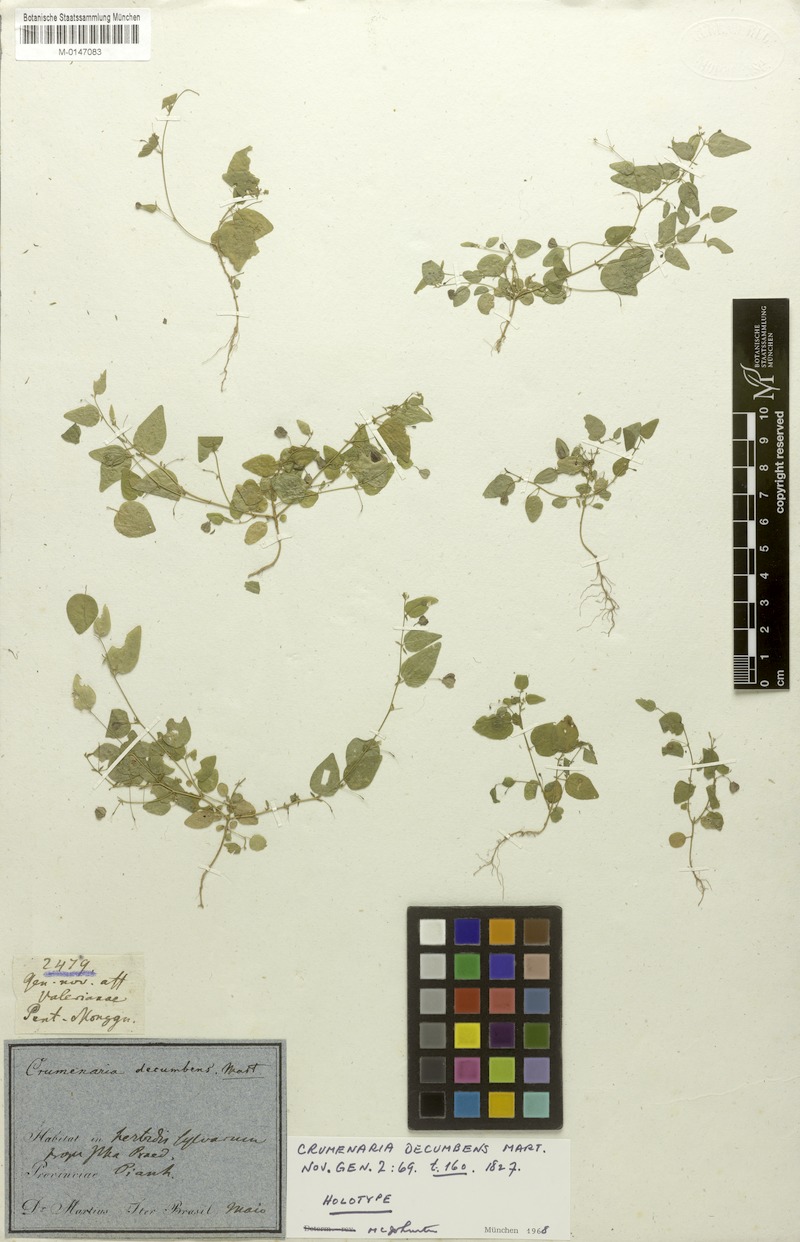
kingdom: Plantae
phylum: Tracheophyta
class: Magnoliopsida
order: Rosales
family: Rhamnaceae
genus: Crumenaria
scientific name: Crumenaria decumbens
